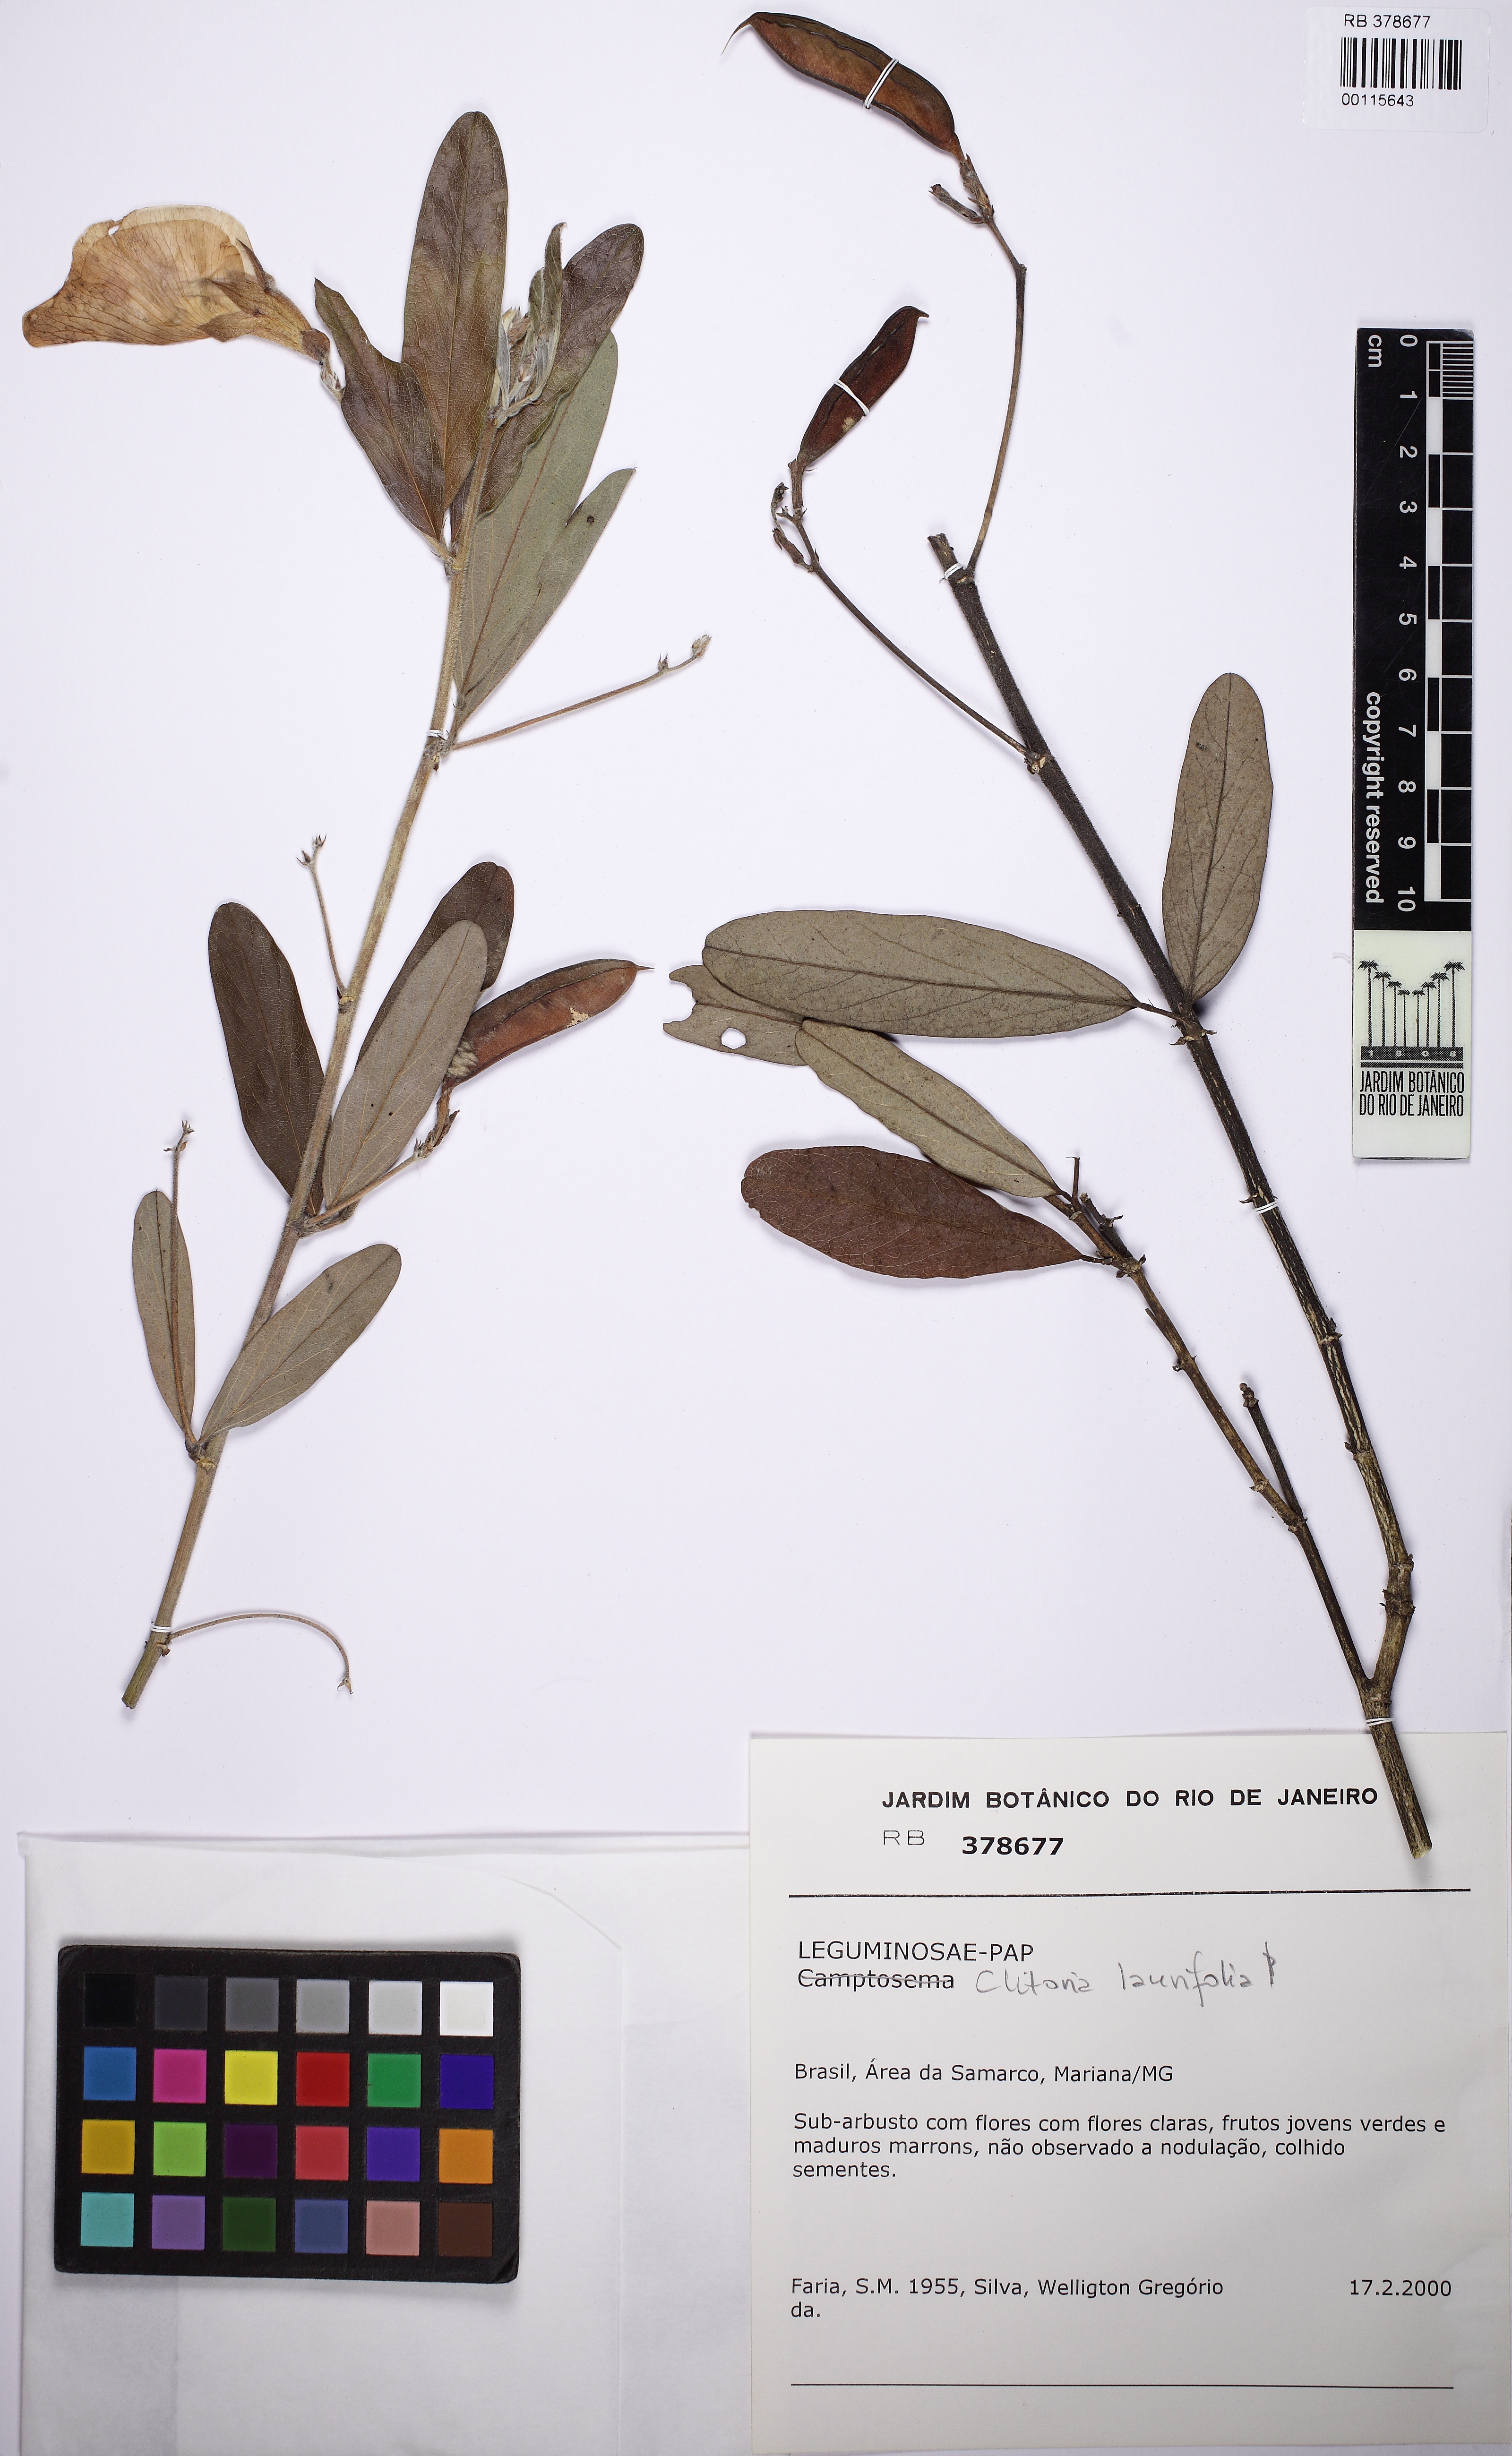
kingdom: Plantae
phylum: Tracheophyta
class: Magnoliopsida
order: Fabales
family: Fabaceae
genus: Camptosema
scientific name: Camptosema
